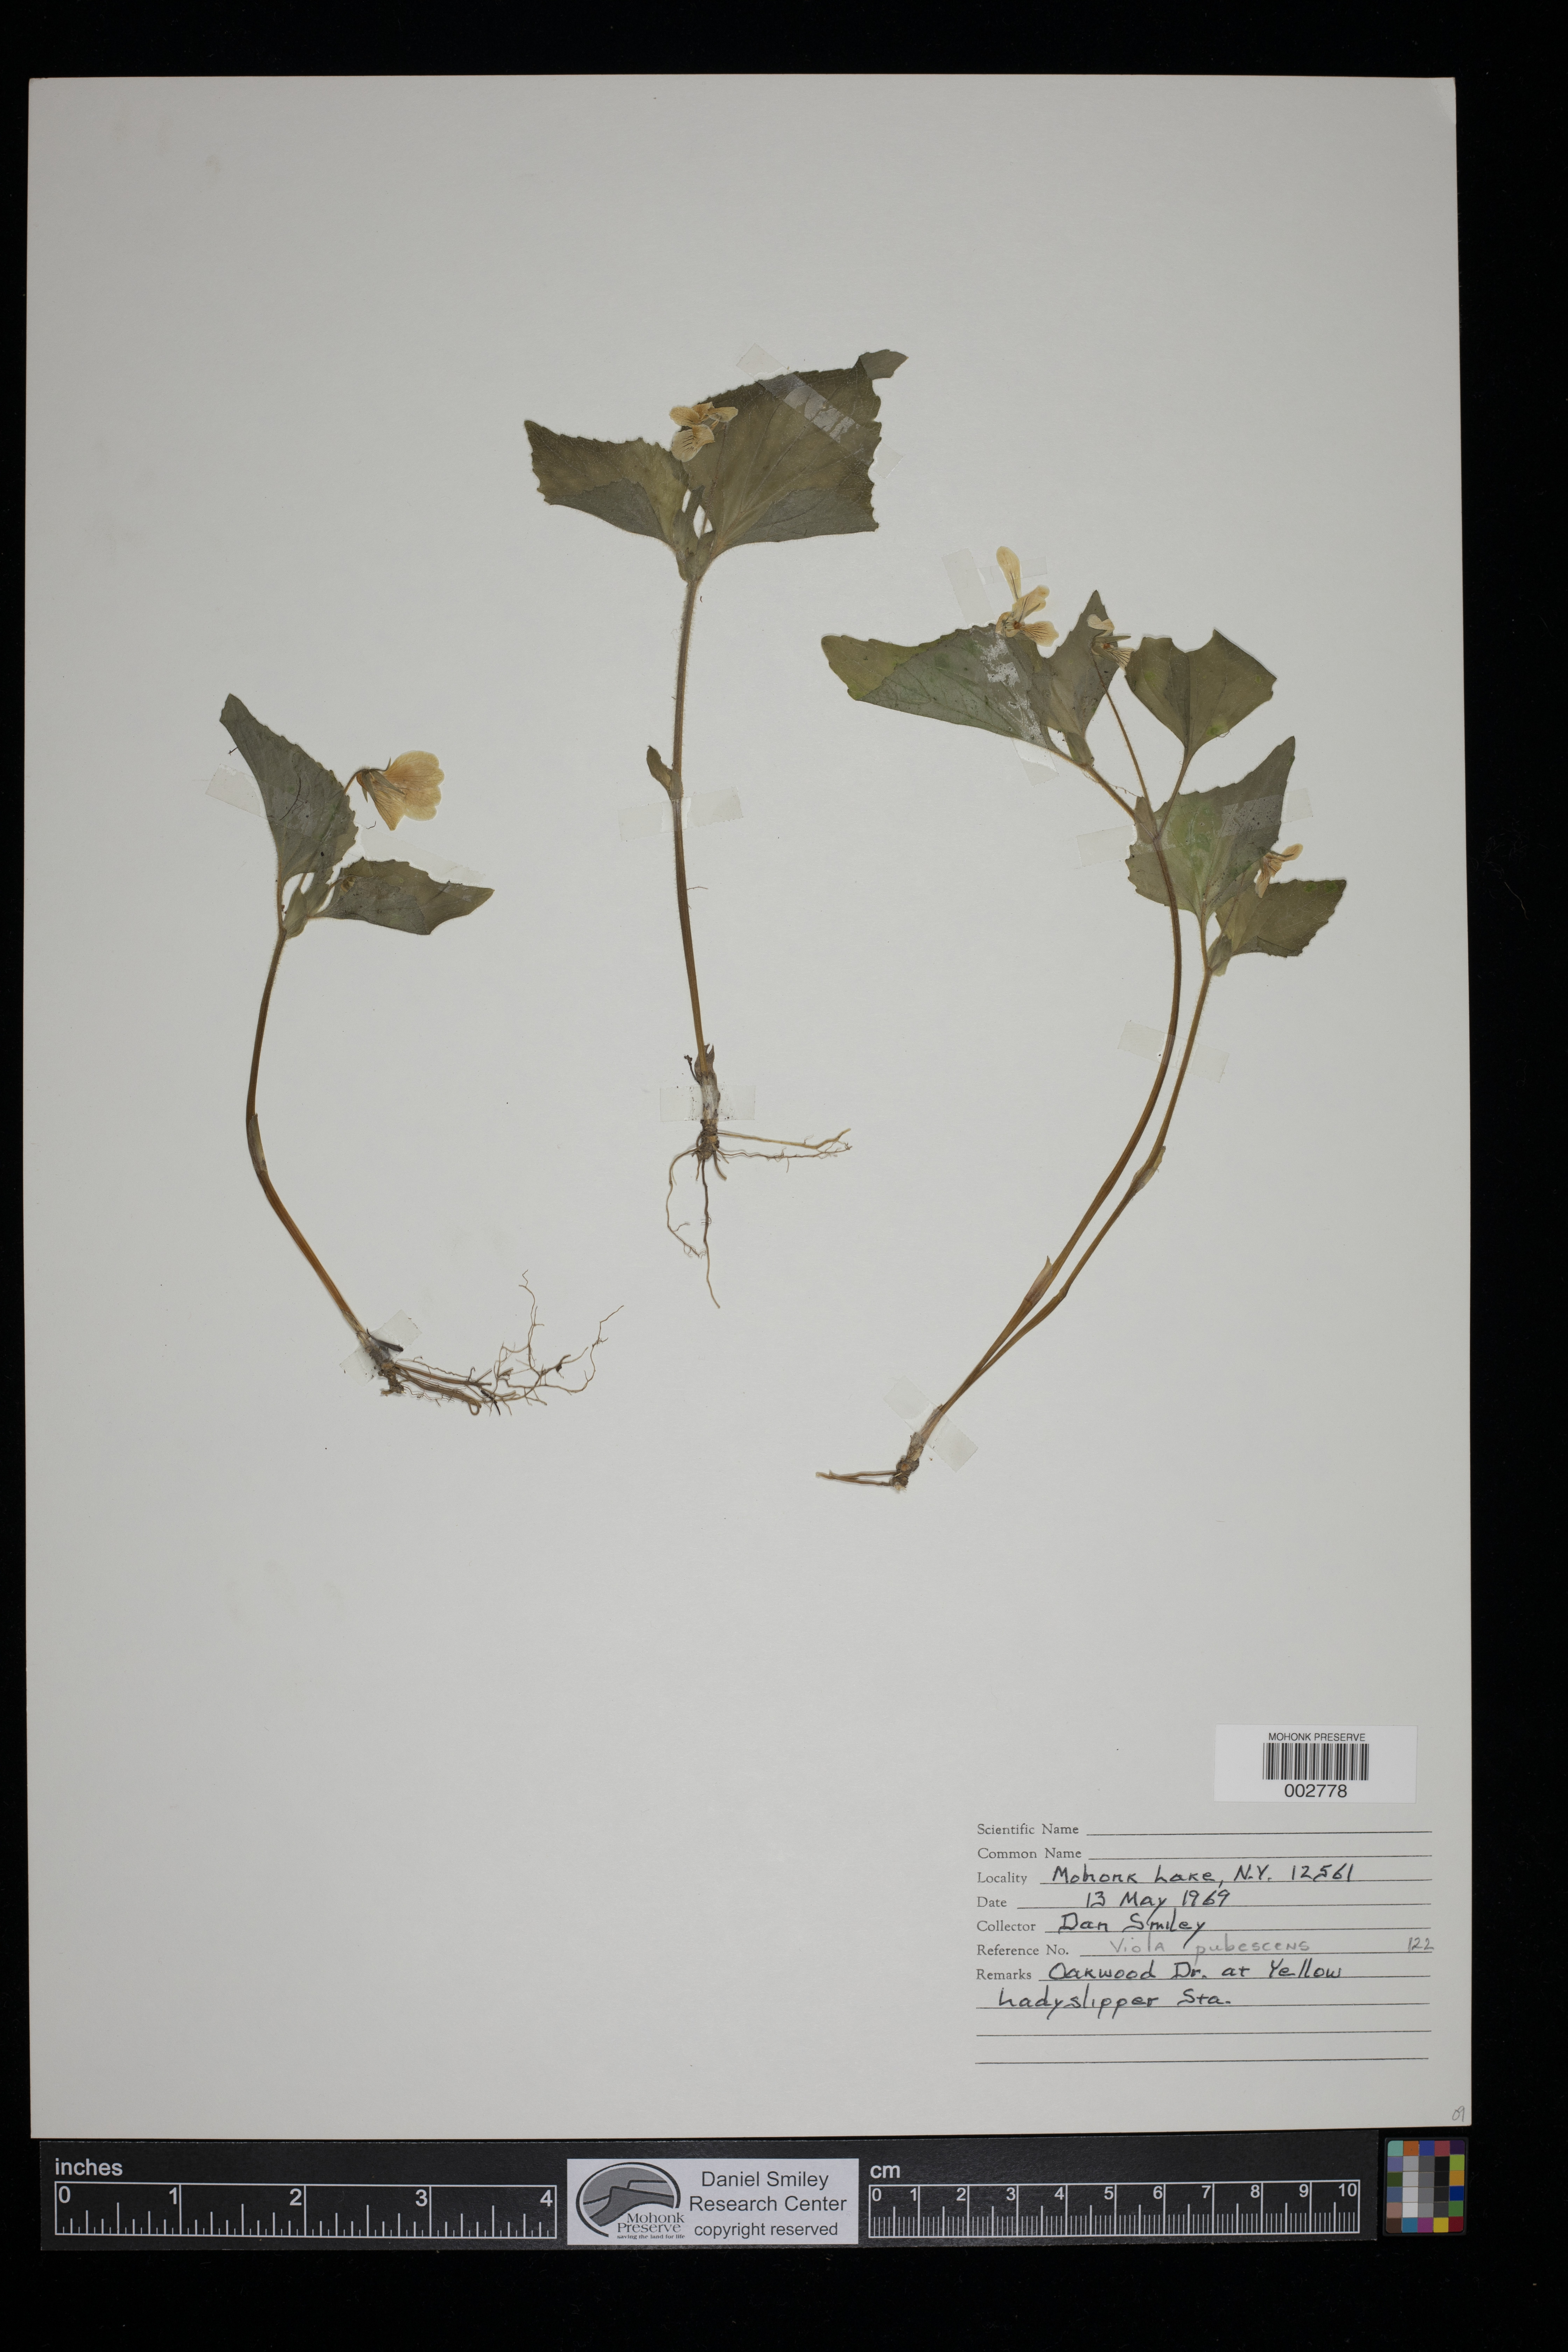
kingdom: Plantae
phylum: Tracheophyta
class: Magnoliopsida
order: Malpighiales
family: Violaceae
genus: Viola
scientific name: Viola pubescens
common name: Yellow forest violet
